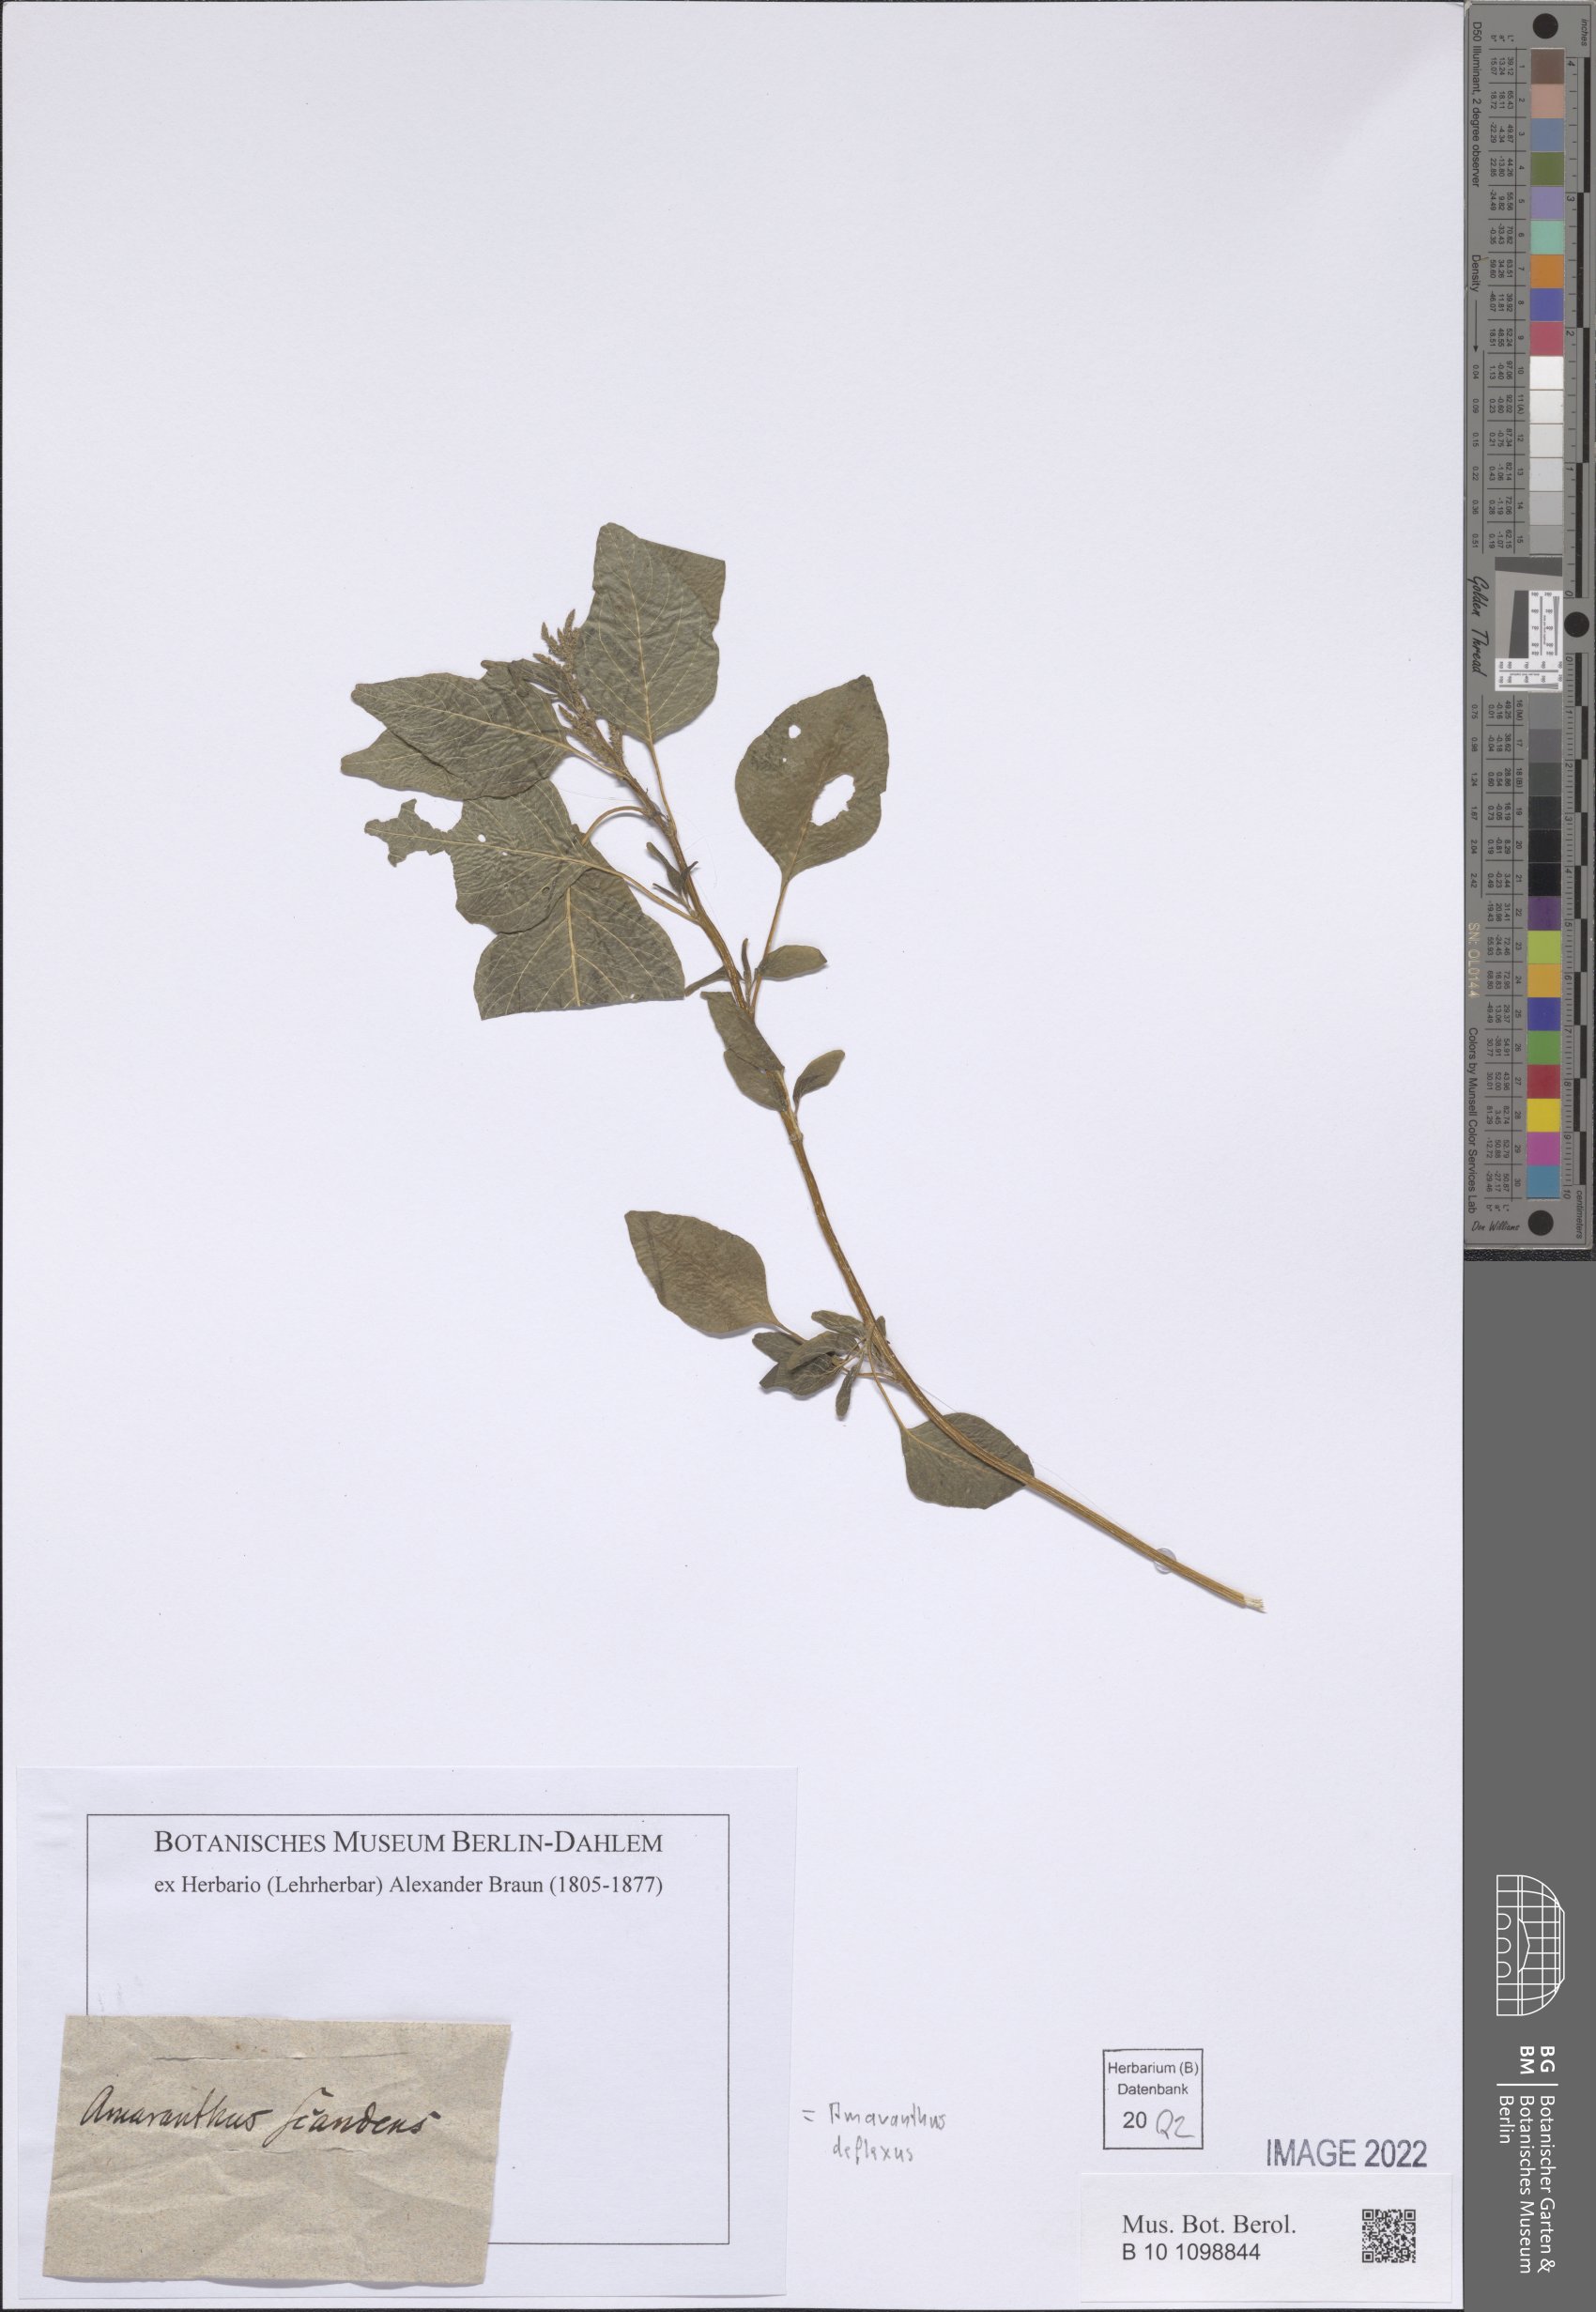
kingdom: Plantae
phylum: Tracheophyta
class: Magnoliopsida
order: Caryophyllales
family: Amaranthaceae
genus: Amaranthus
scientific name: Amaranthus deflexus
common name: Perennial pigweed
